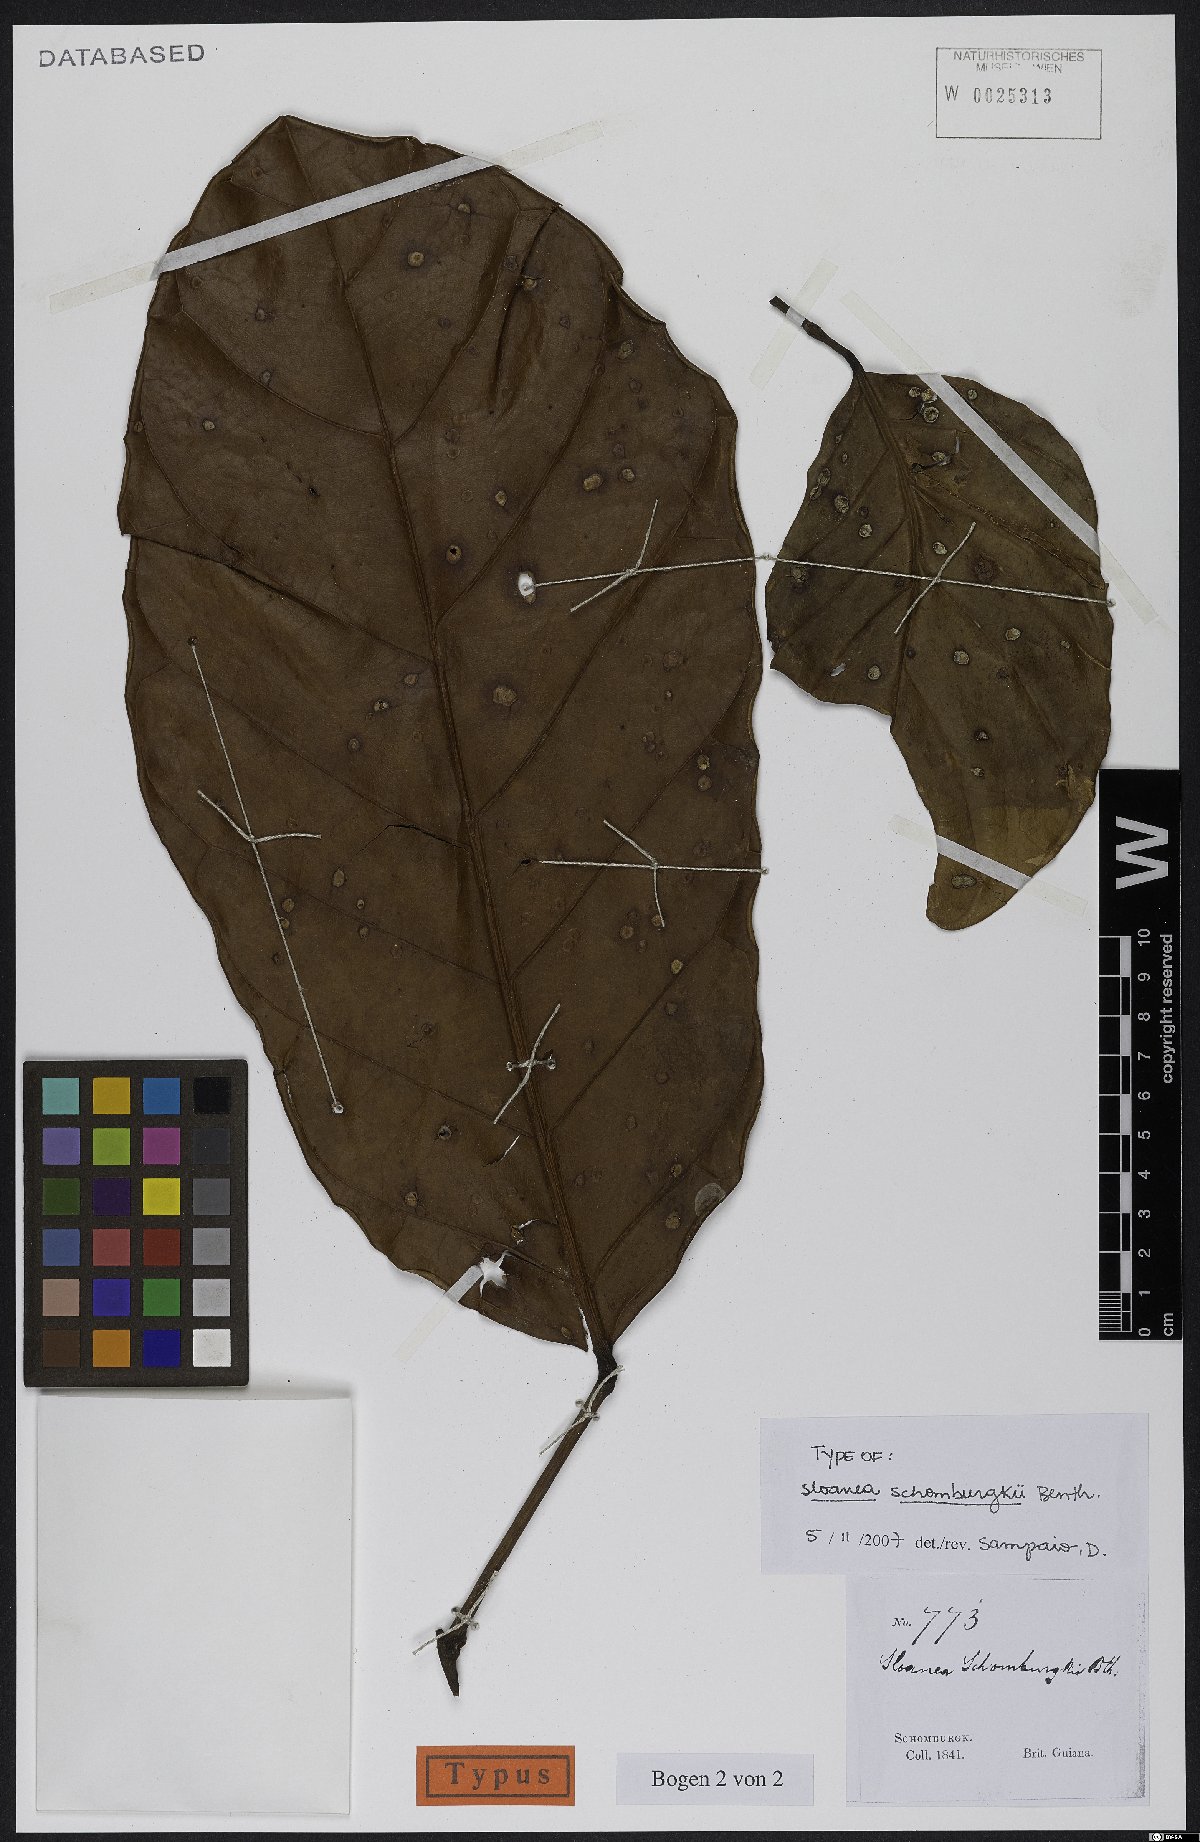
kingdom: Plantae
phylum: Tracheophyta
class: Magnoliopsida
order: Oxalidales
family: Elaeocarpaceae
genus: Sloanea
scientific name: Sloanea schomburgkii
